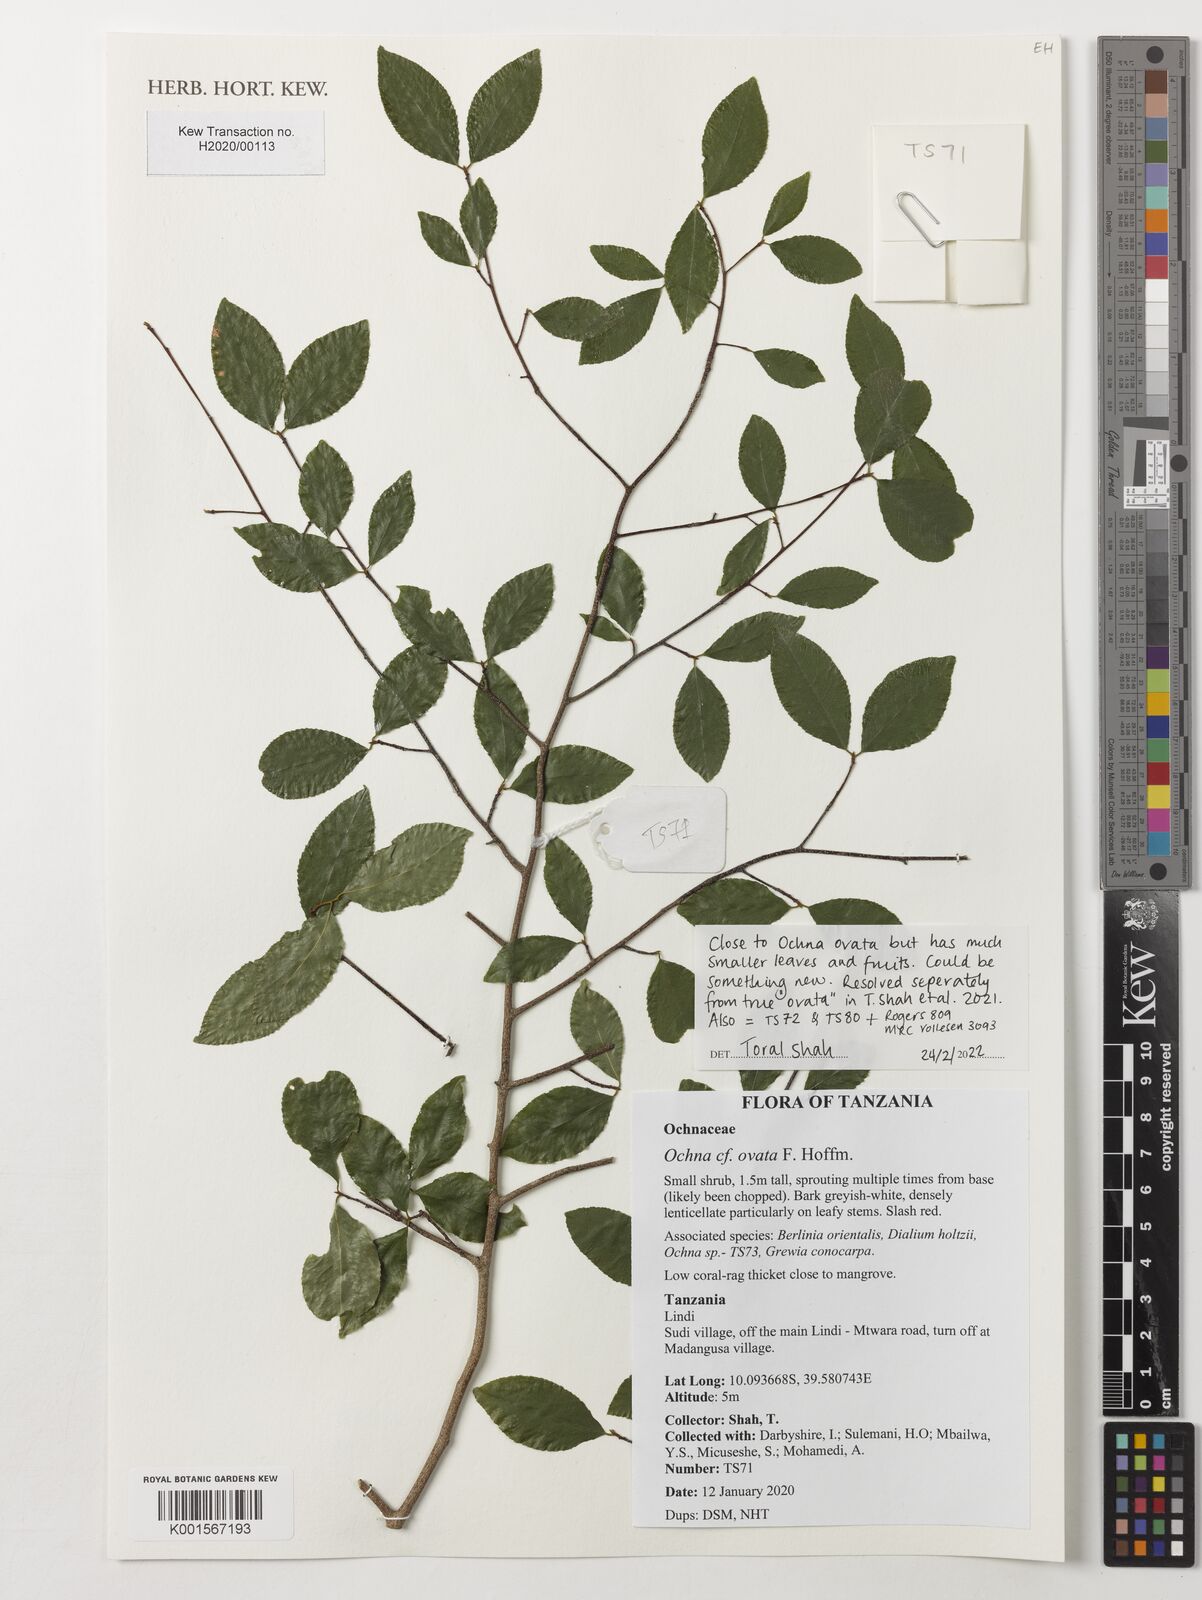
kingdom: Plantae
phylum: Tracheophyta
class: Magnoliopsida
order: Malpighiales
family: Ochnaceae
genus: Ochna
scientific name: Ochna ovata
